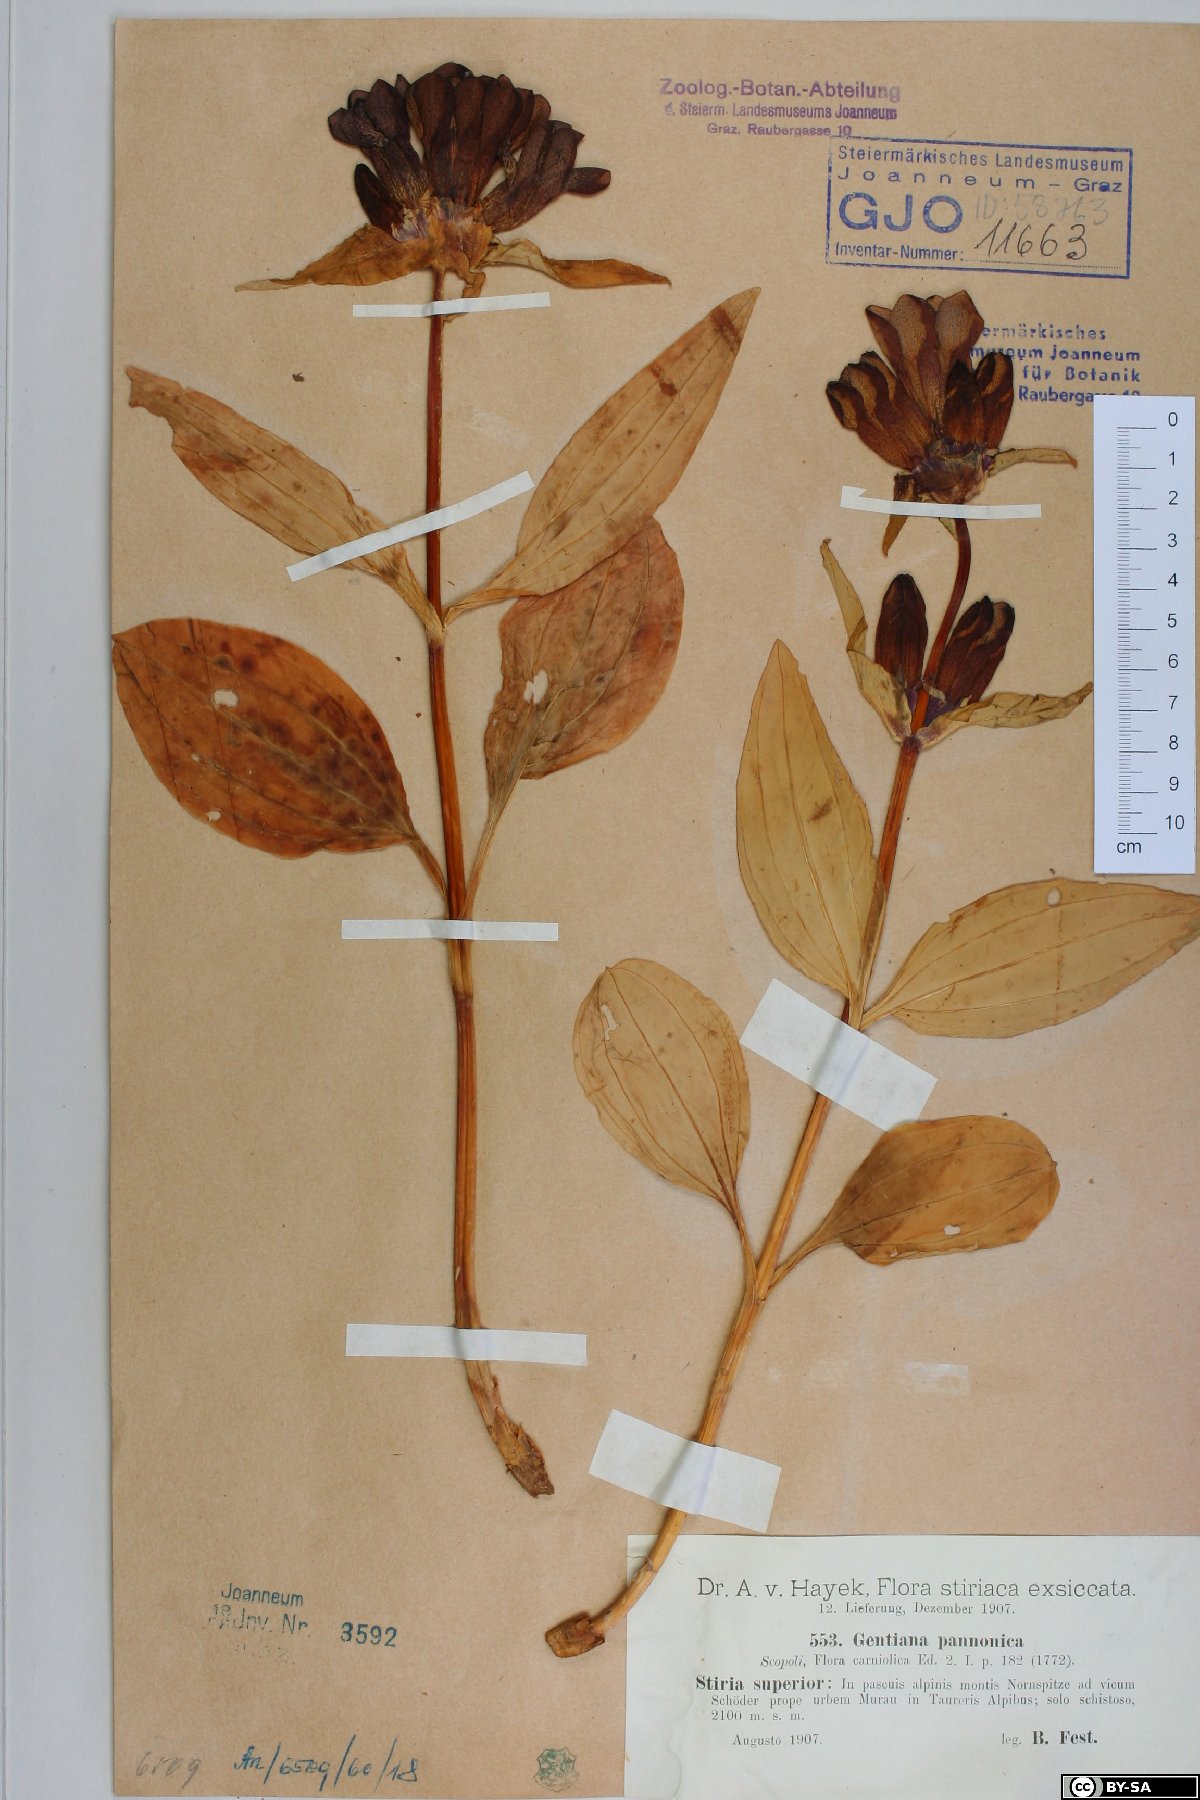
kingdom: Plantae
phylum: Tracheophyta
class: Magnoliopsida
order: Gentianales
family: Gentianaceae
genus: Gentiana
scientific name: Gentiana pannonica
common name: Hungarian gentian
